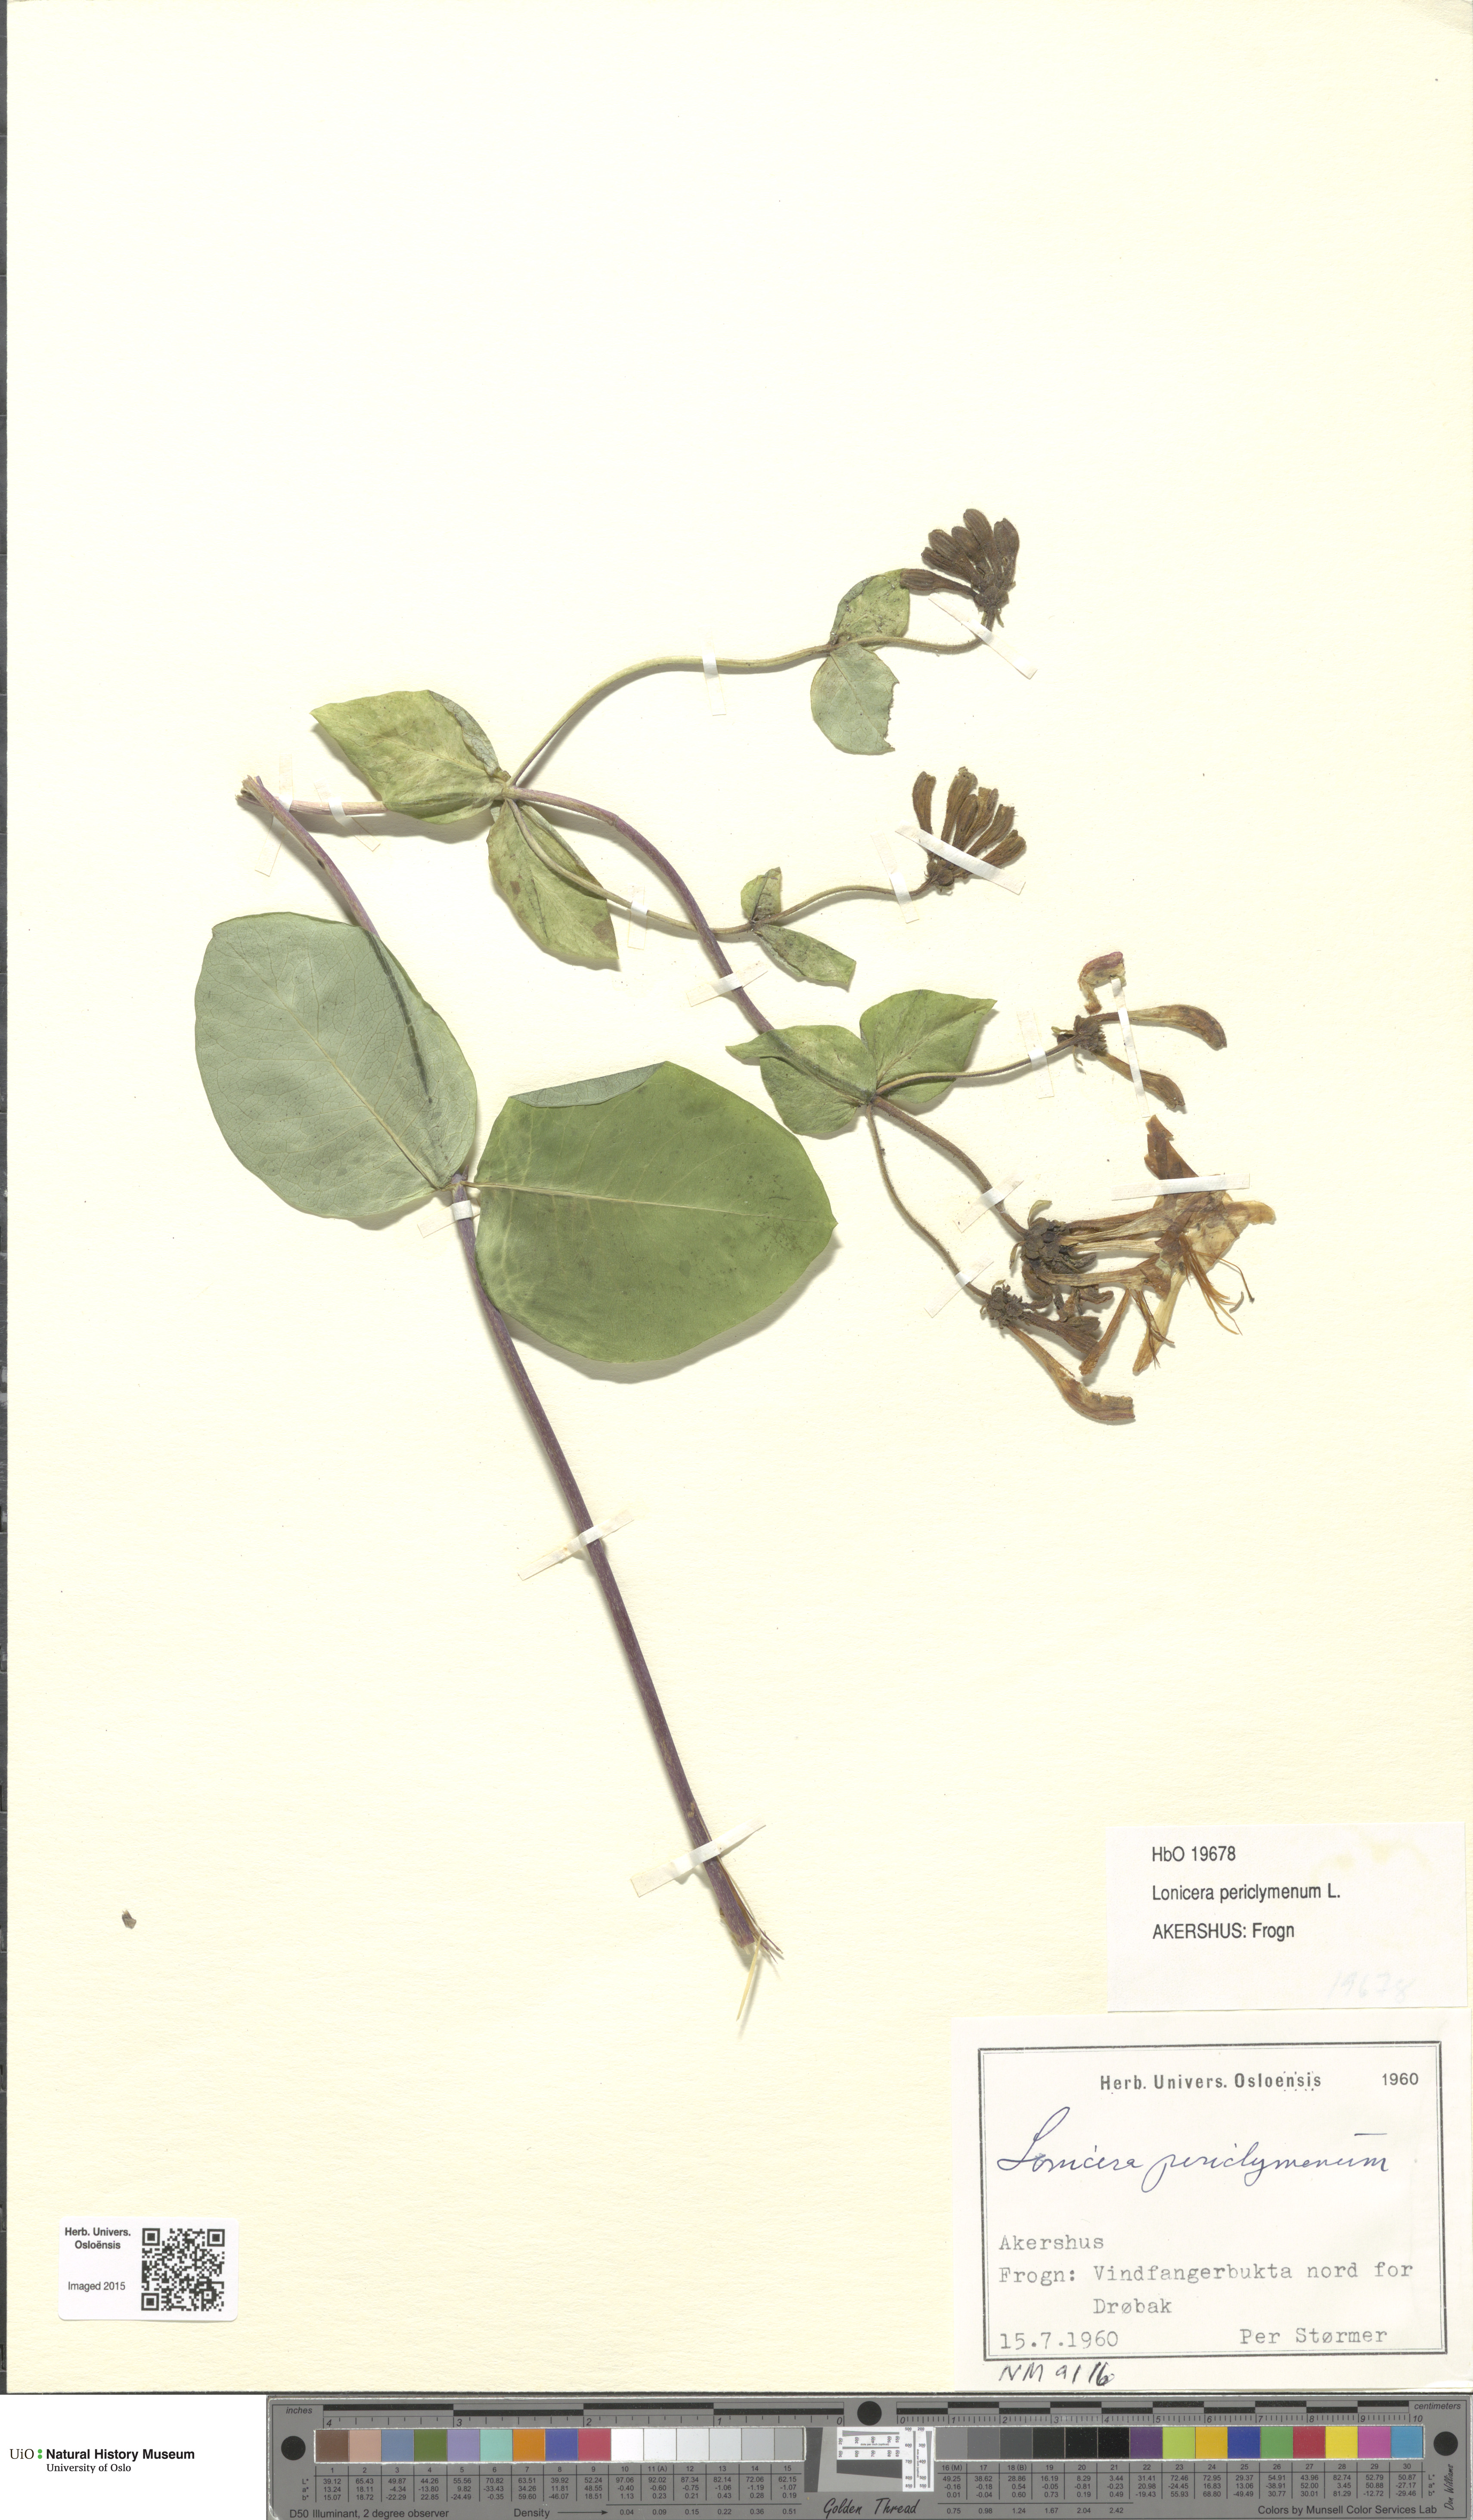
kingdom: Plantae
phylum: Tracheophyta
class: Magnoliopsida
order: Dipsacales
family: Caprifoliaceae
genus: Lonicera
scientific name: Lonicera periclymenum
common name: European honeysuckle
